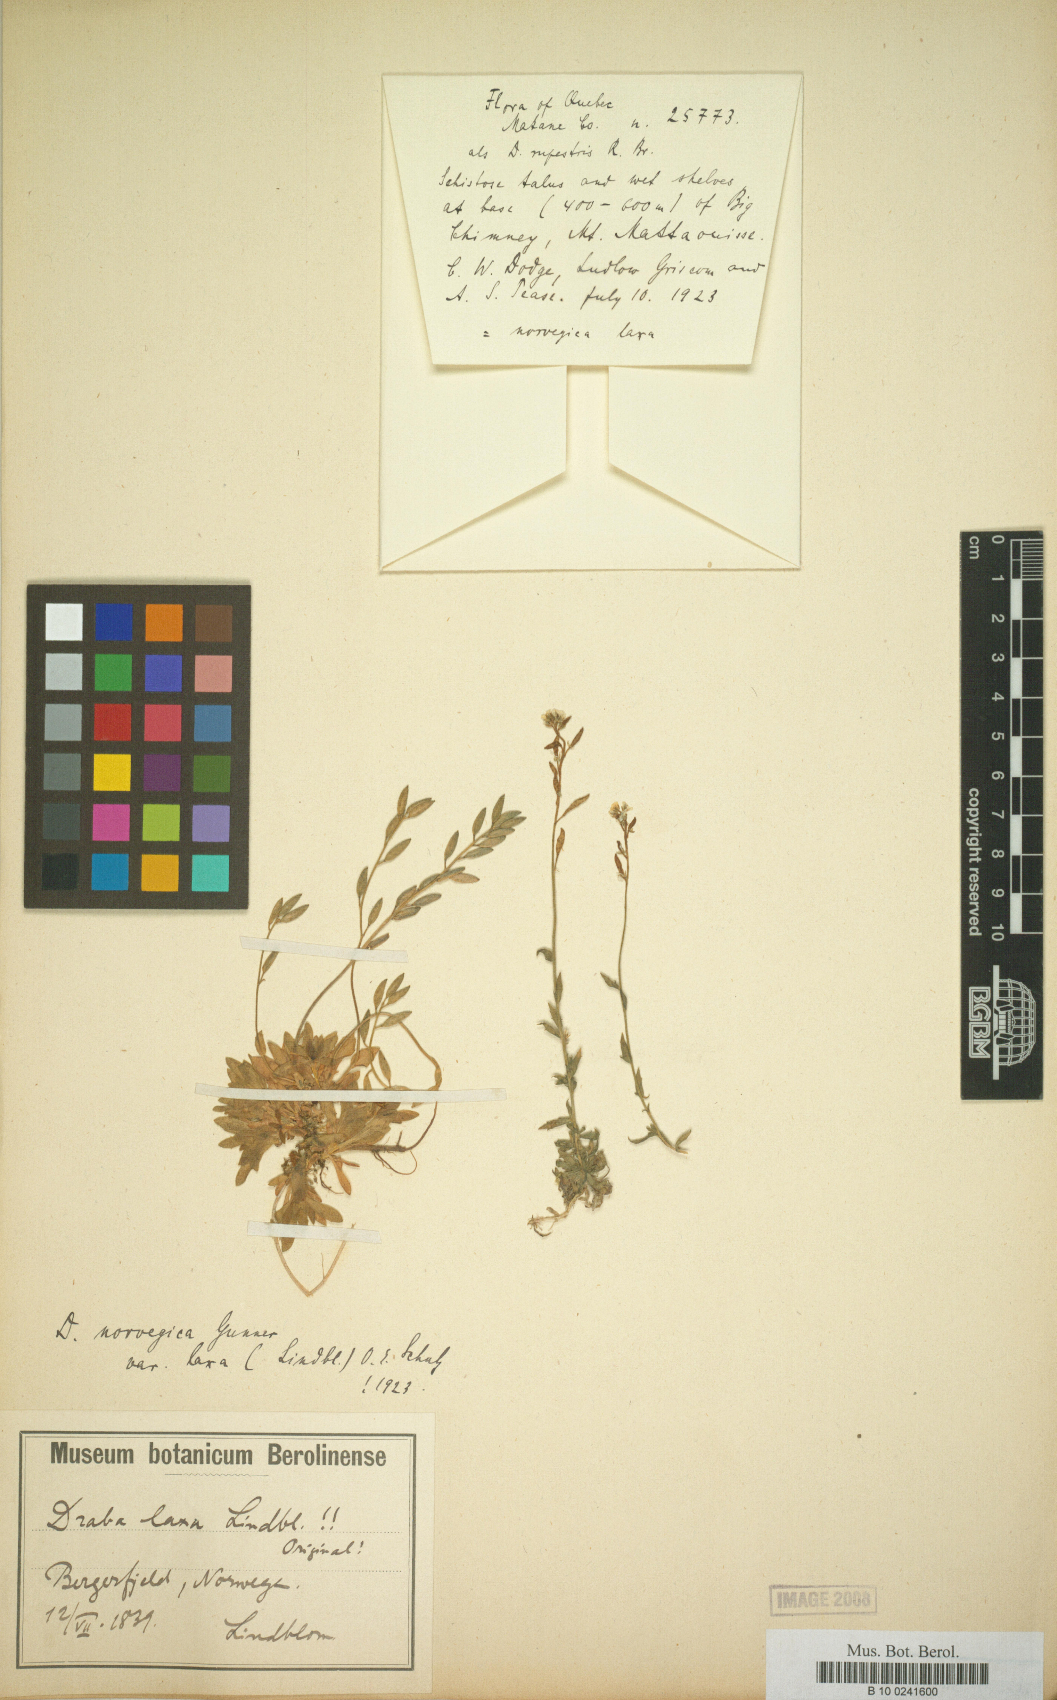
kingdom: Plantae
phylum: Tracheophyta
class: Magnoliopsida
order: Brassicales
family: Brassicaceae
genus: Draba
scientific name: Draba norvegica
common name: Rock whitlowgrass
